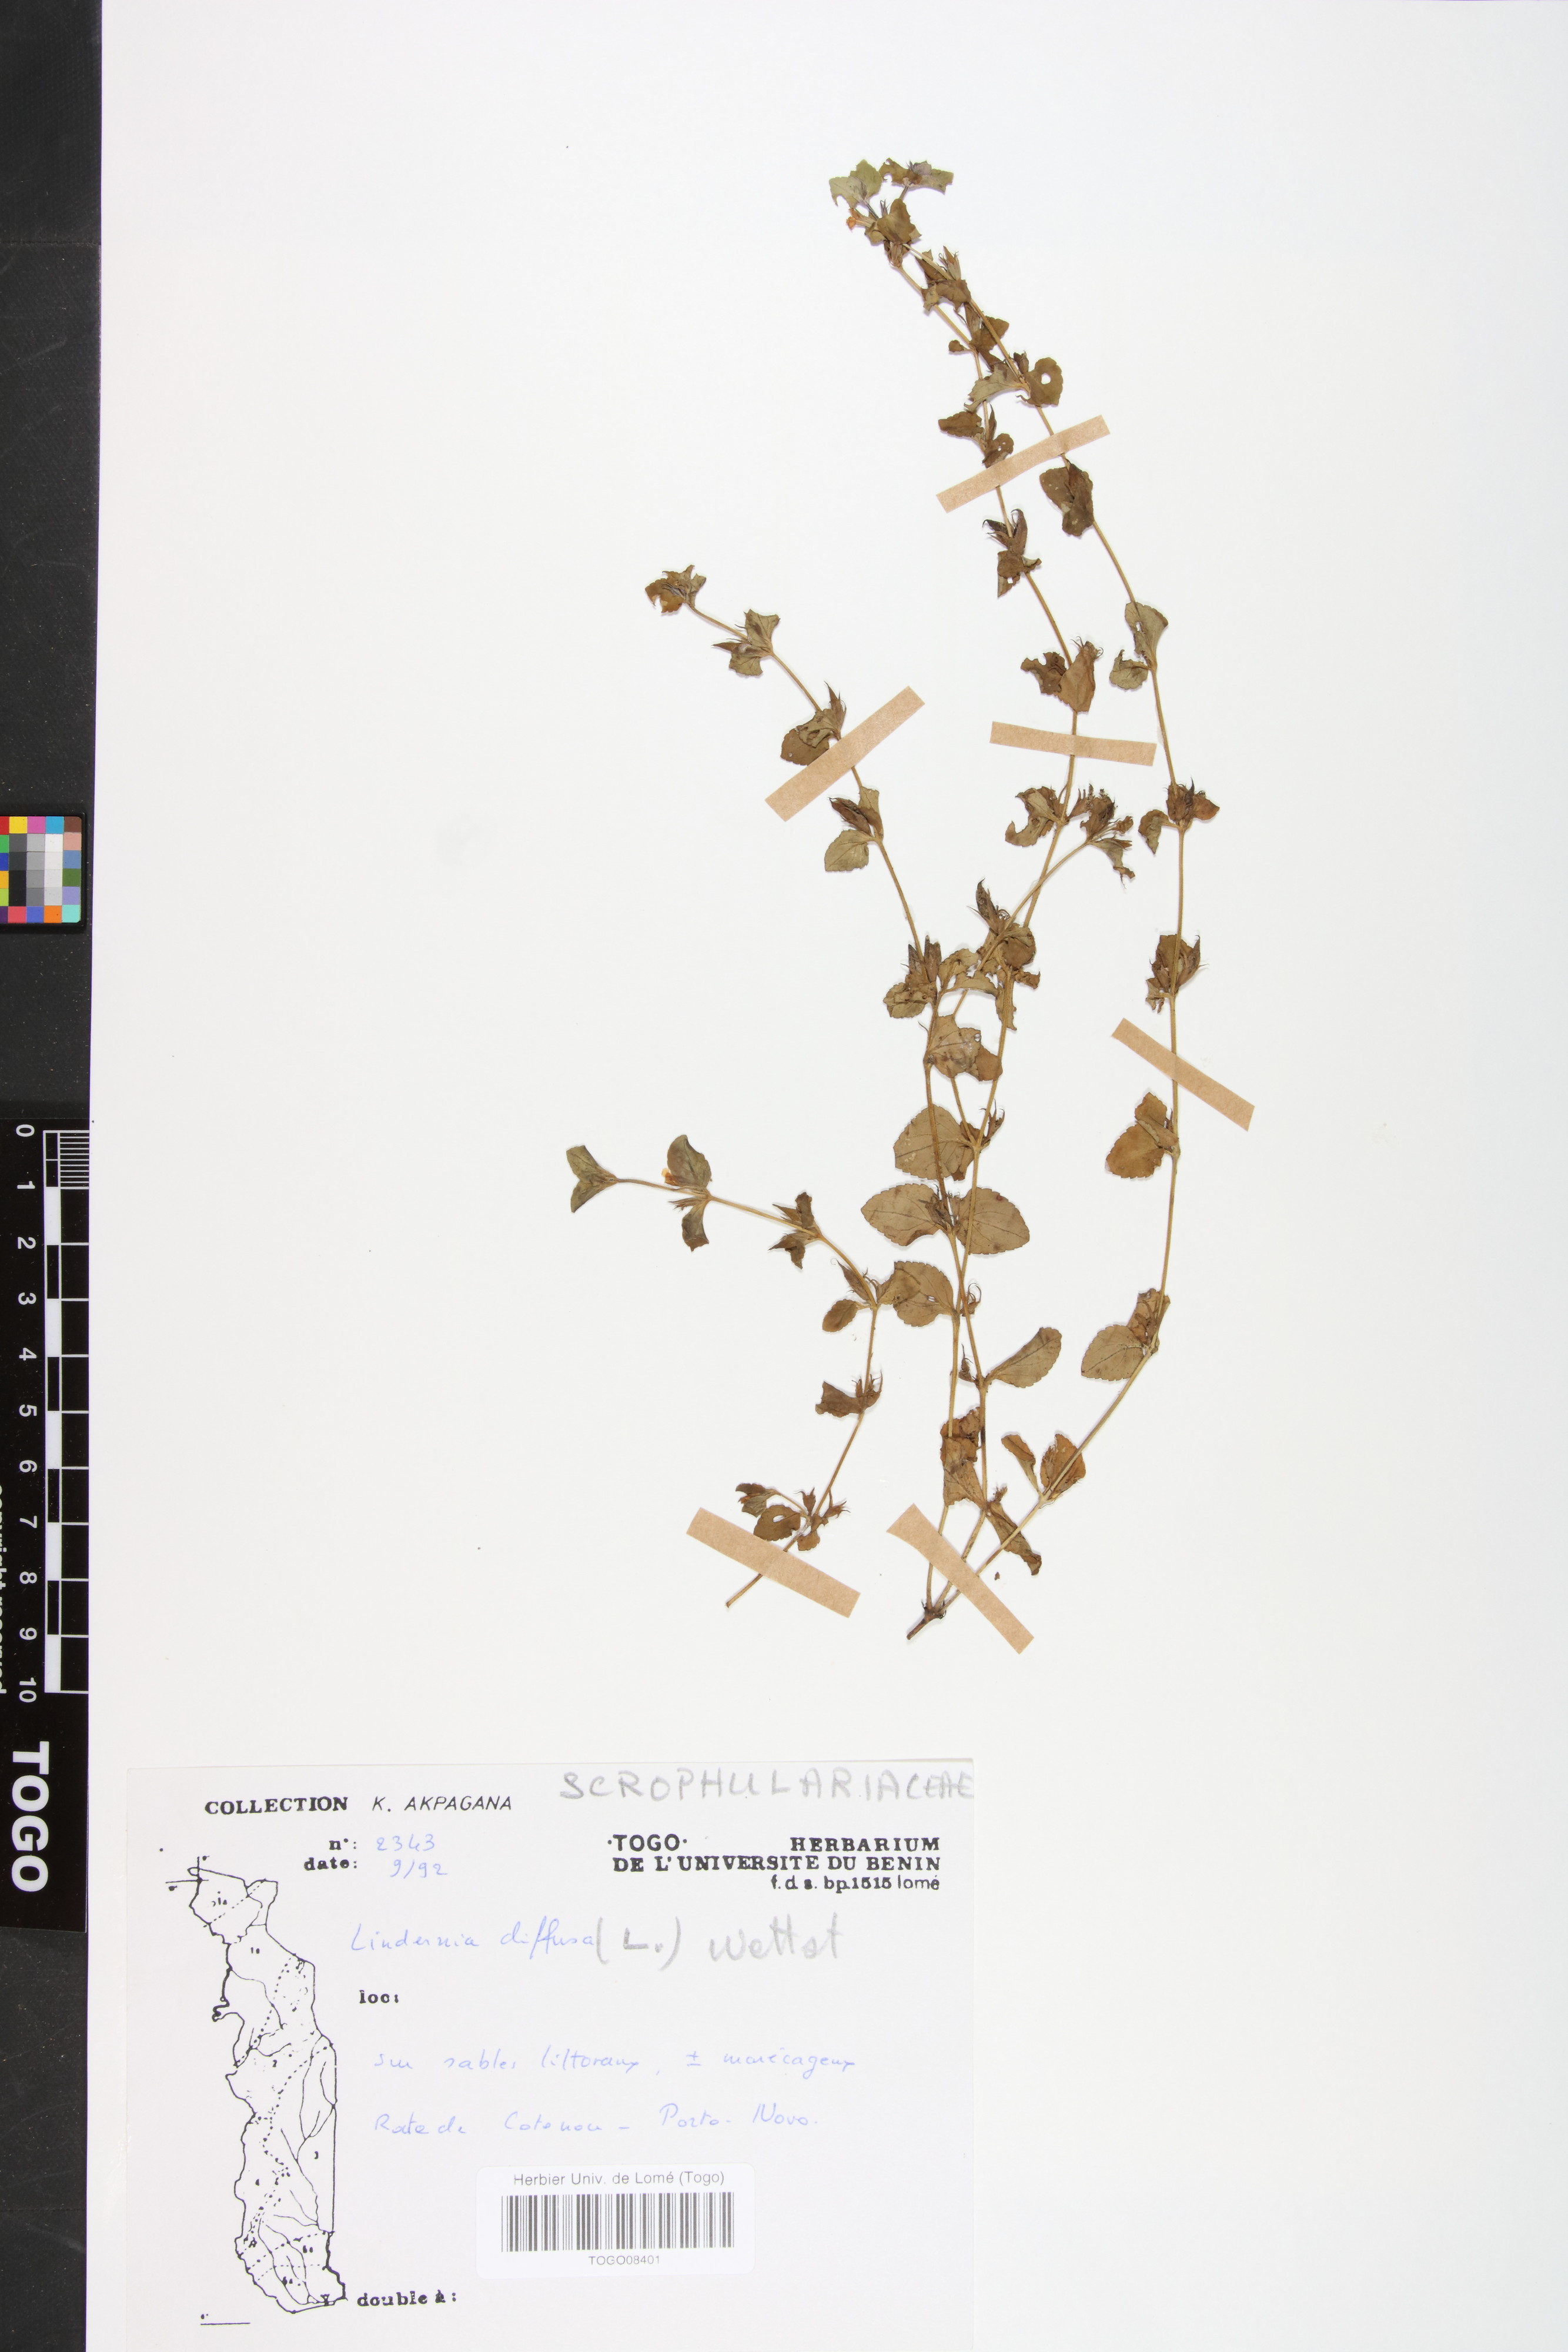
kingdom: Plantae
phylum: Tracheophyta
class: Magnoliopsida
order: Lamiales
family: Linderniaceae
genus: Vandellia
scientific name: Vandellia diffusa
